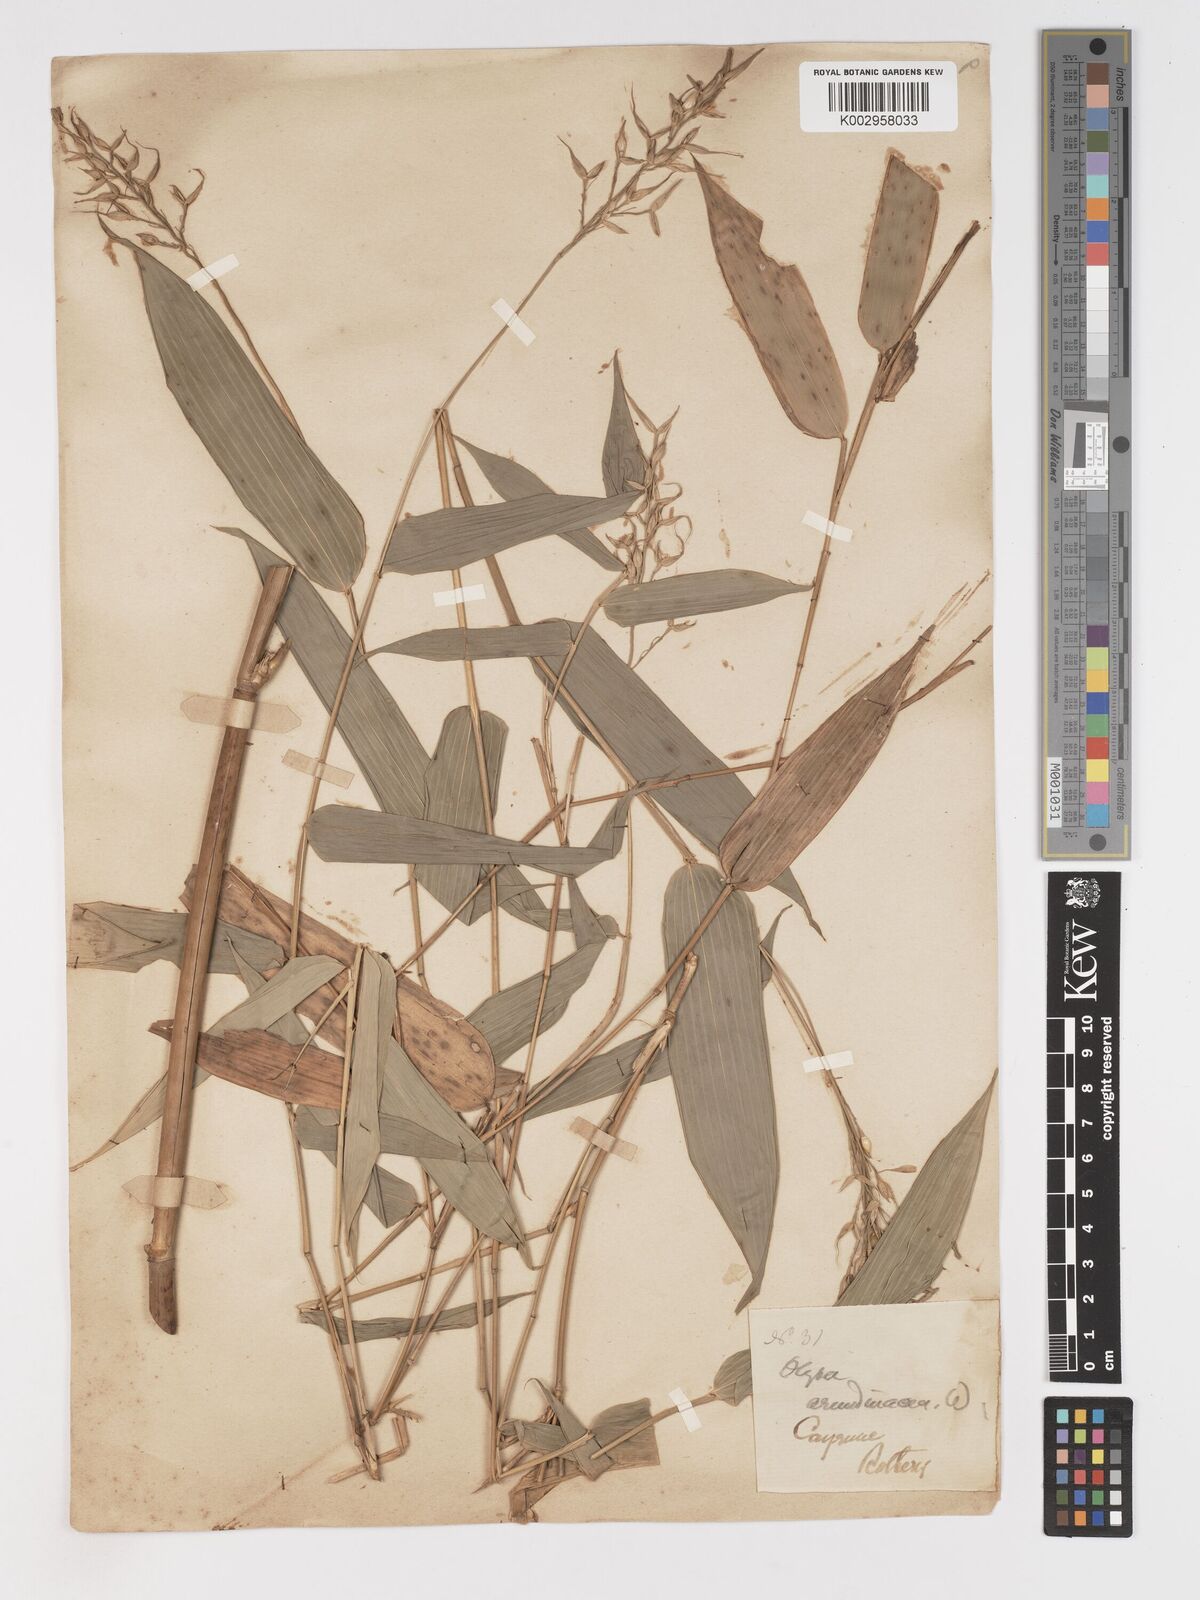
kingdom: Plantae
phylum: Tracheophyta
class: Liliopsida
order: Poales
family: Poaceae
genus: Olyra
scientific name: Olyra latifolia
